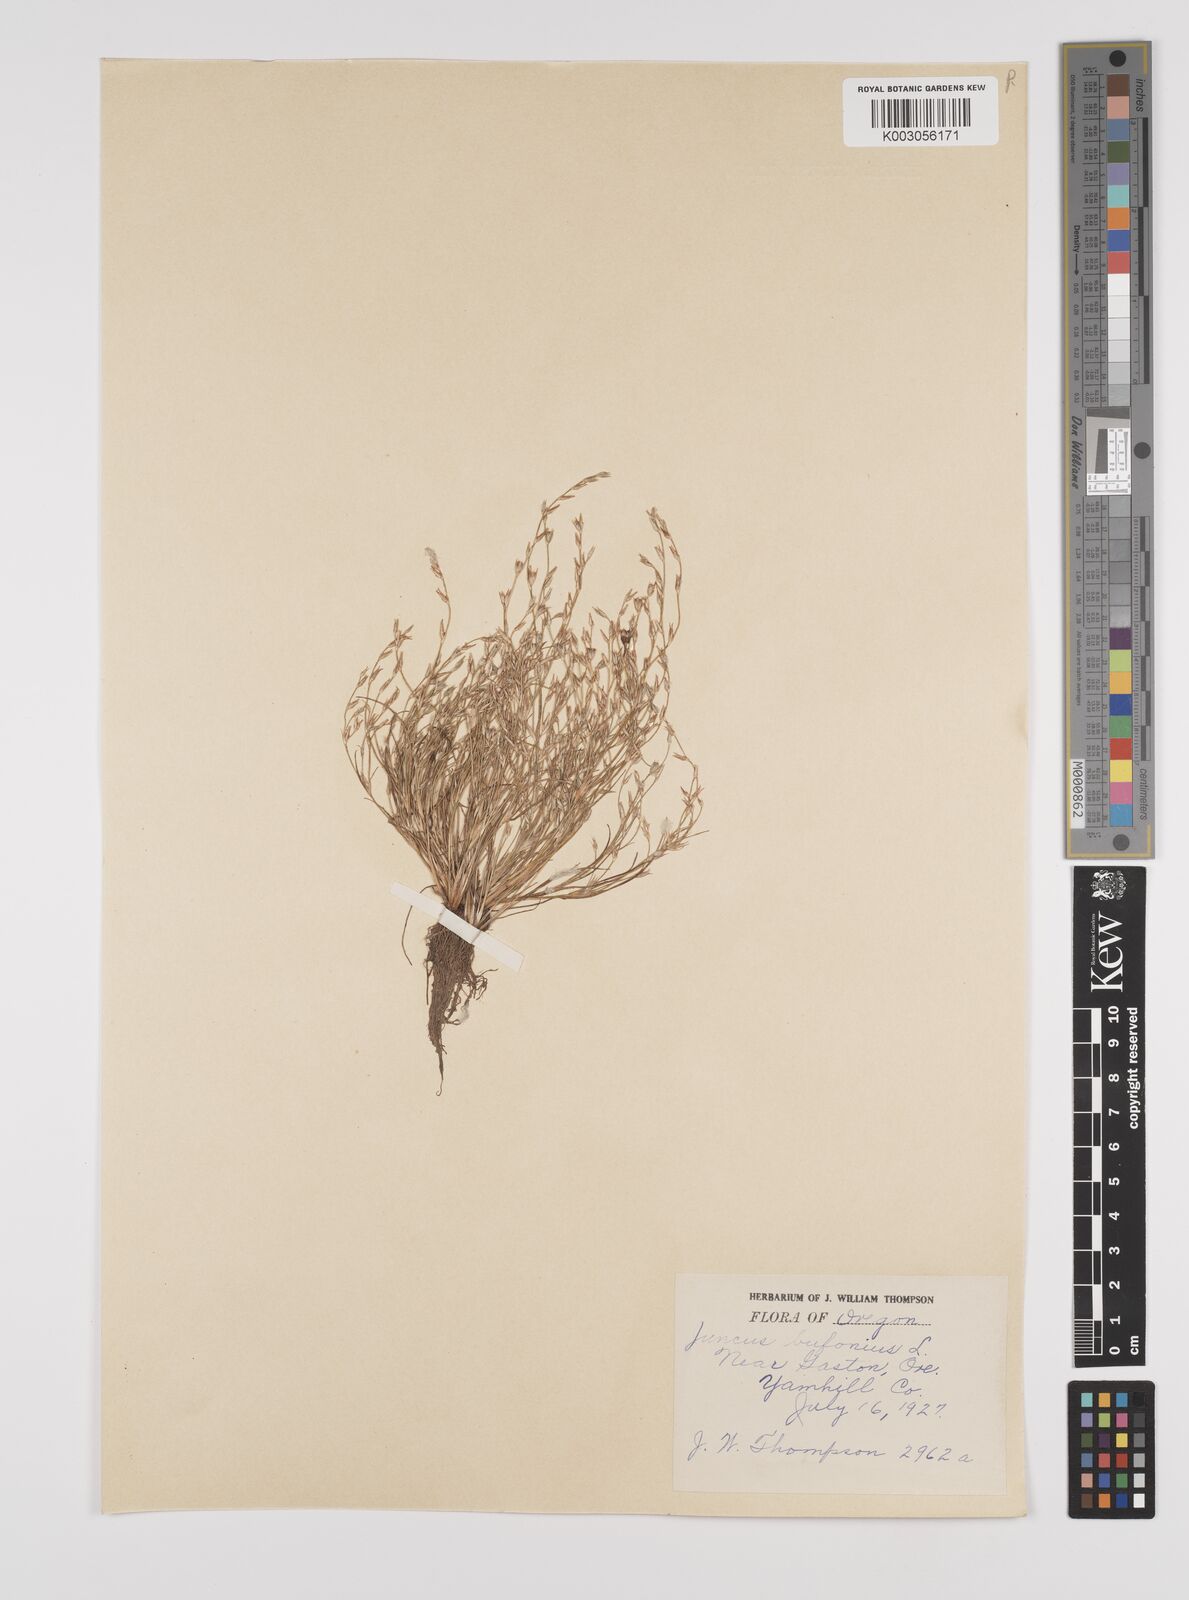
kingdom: Plantae
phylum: Tracheophyta
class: Liliopsida
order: Poales
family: Juncaceae
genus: Juncus
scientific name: Juncus bufonius
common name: Toad rush
